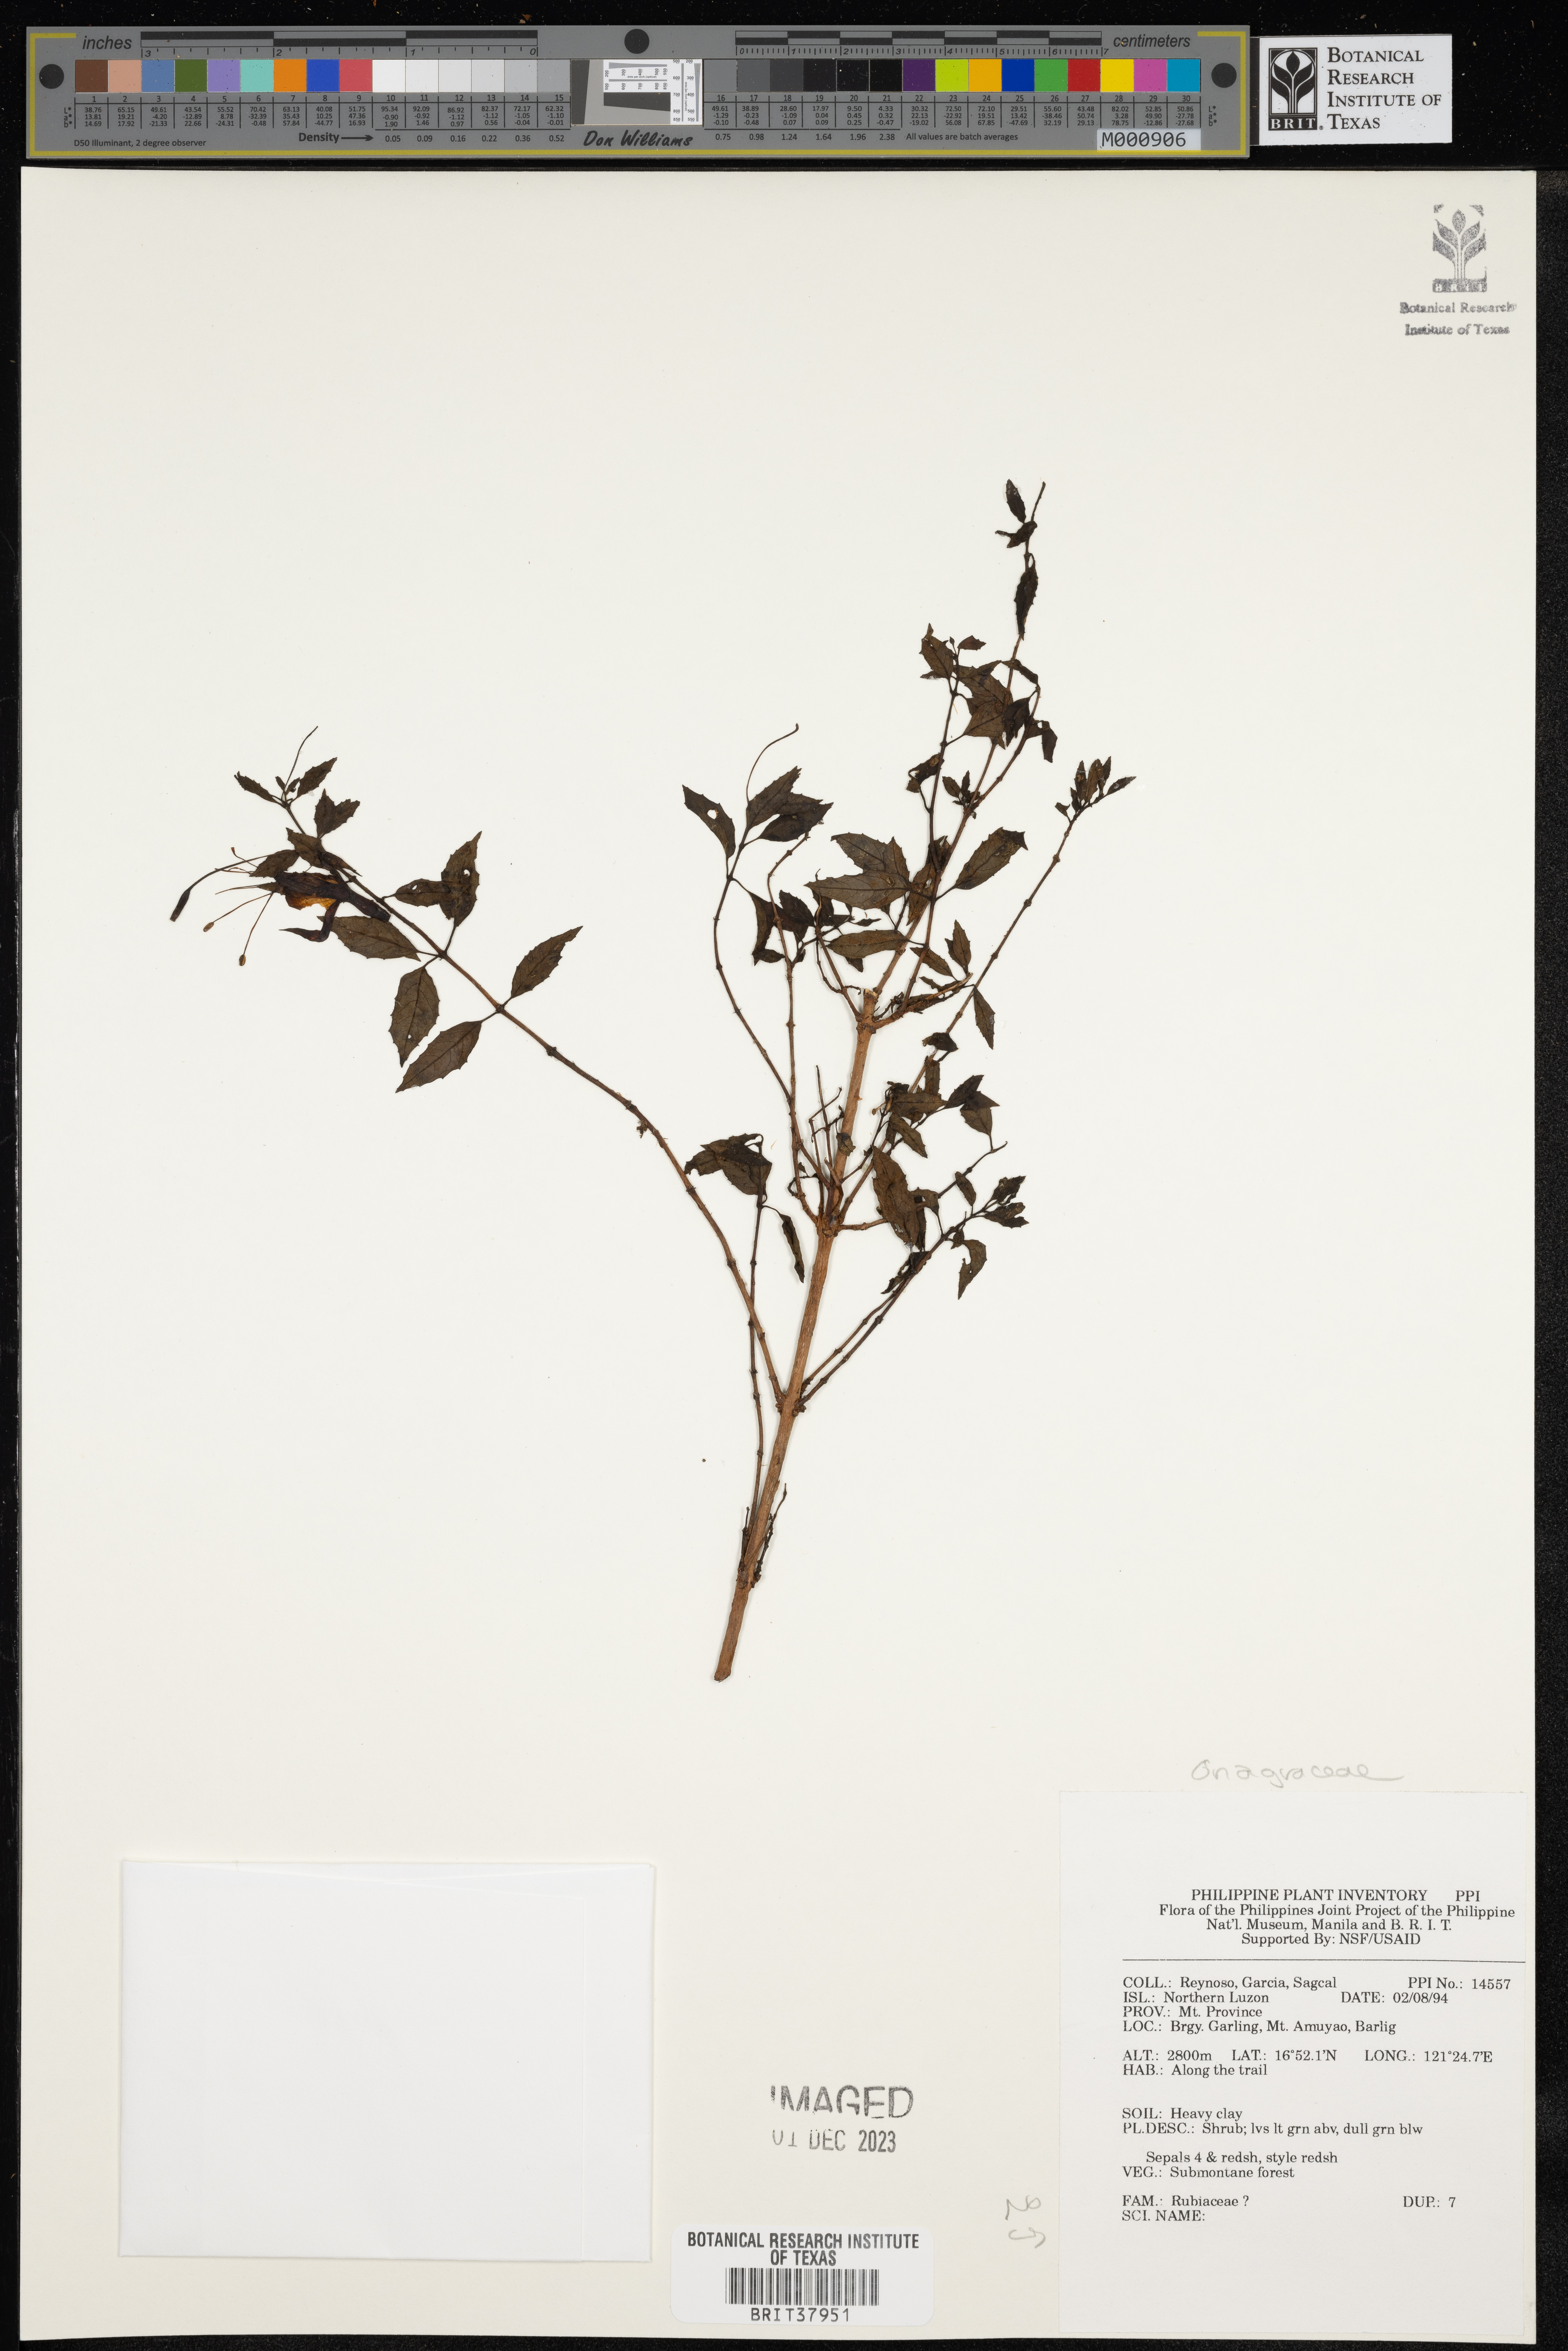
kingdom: Plantae
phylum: Tracheophyta
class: Magnoliopsida
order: Myrtales
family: Onagraceae
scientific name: Onagraceae
